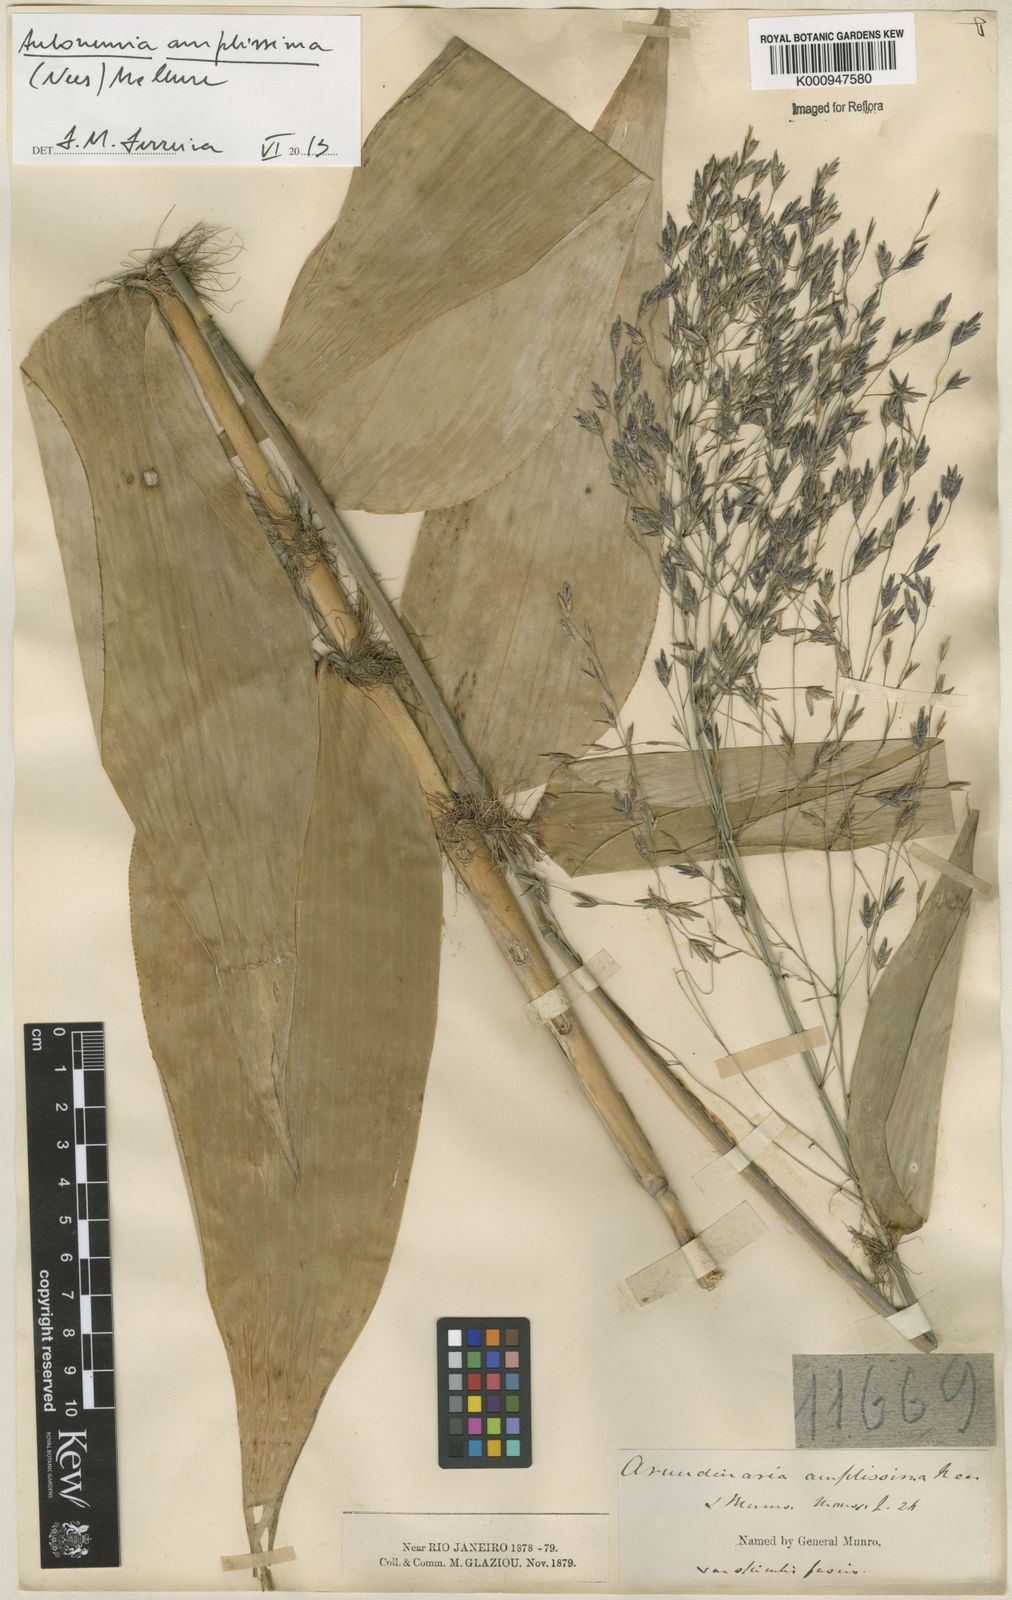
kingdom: Plantae
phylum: Tracheophyta
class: Liliopsida
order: Poales
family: Poaceae
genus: Aulonemia
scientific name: Aulonemia amplissima
